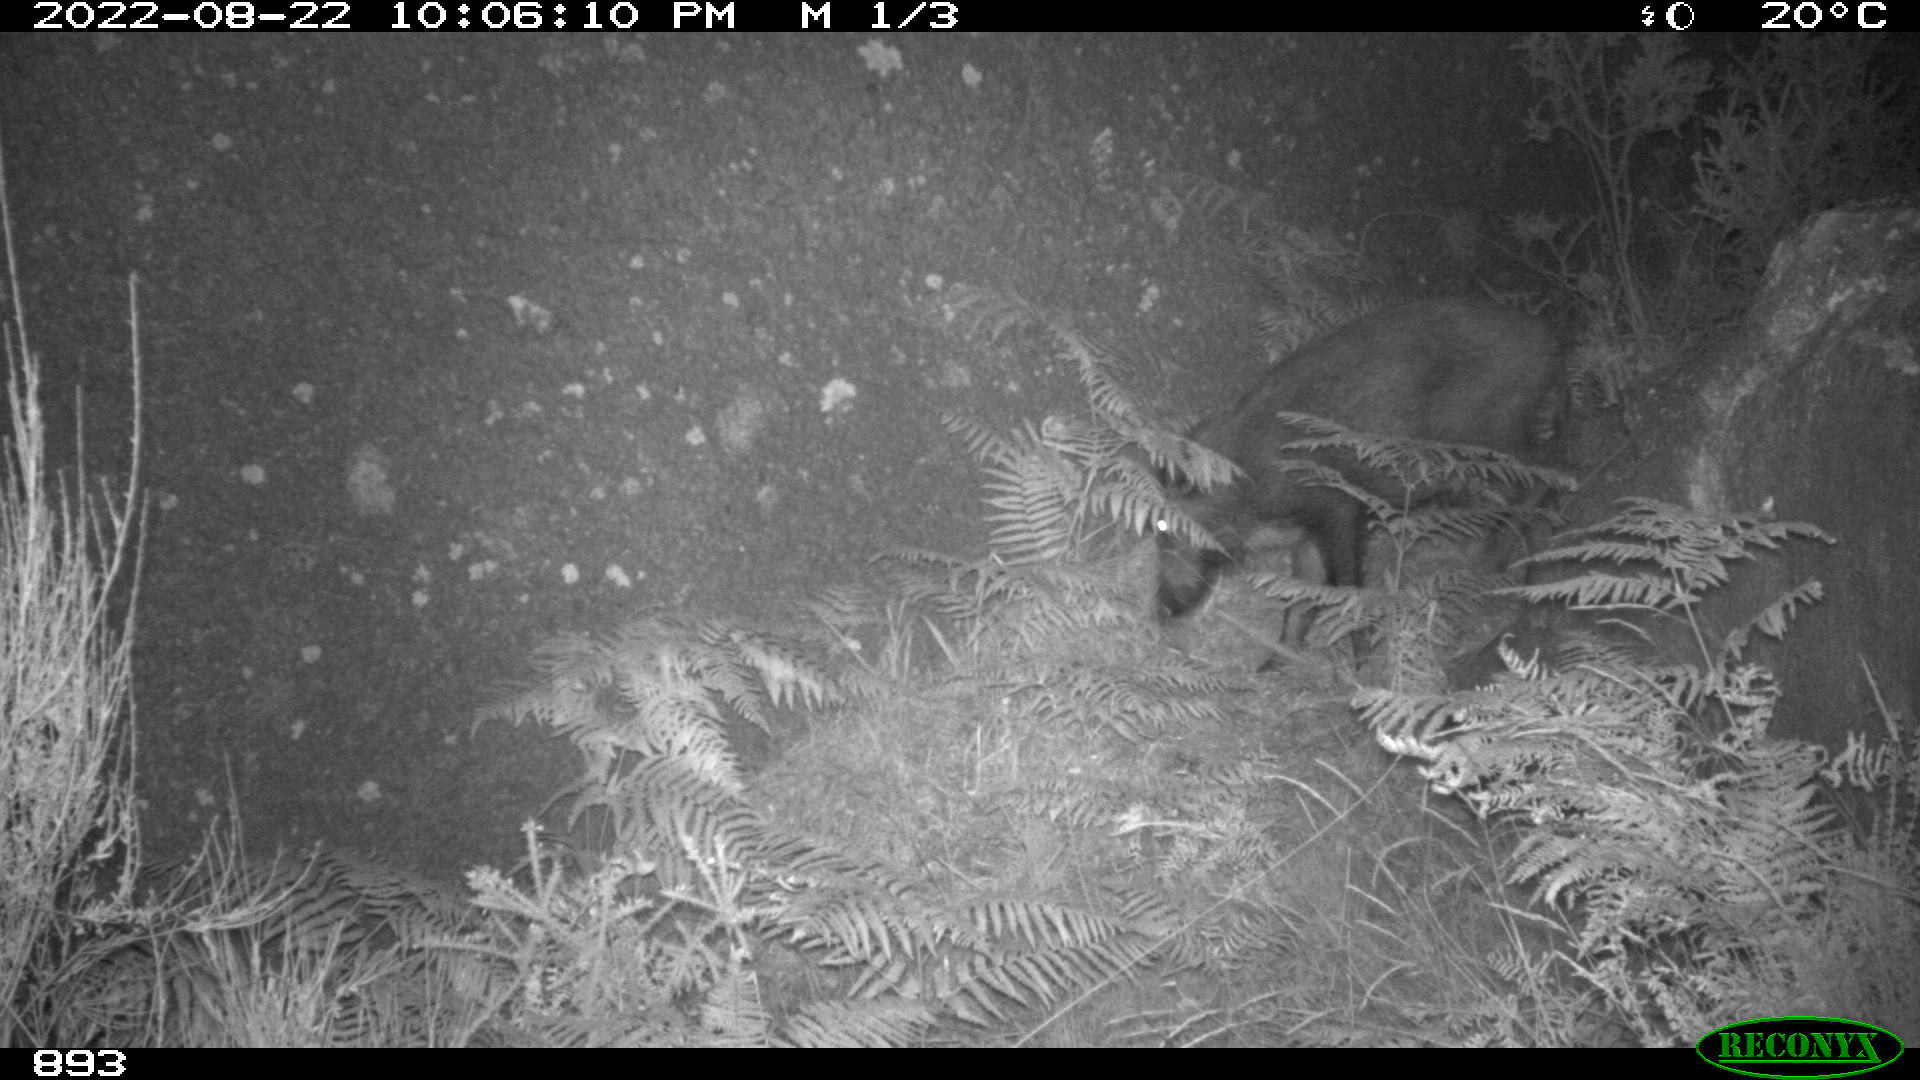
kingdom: Animalia
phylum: Chordata
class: Mammalia
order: Artiodactyla
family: Suidae
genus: Sus
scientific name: Sus scrofa
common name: Wild boar
